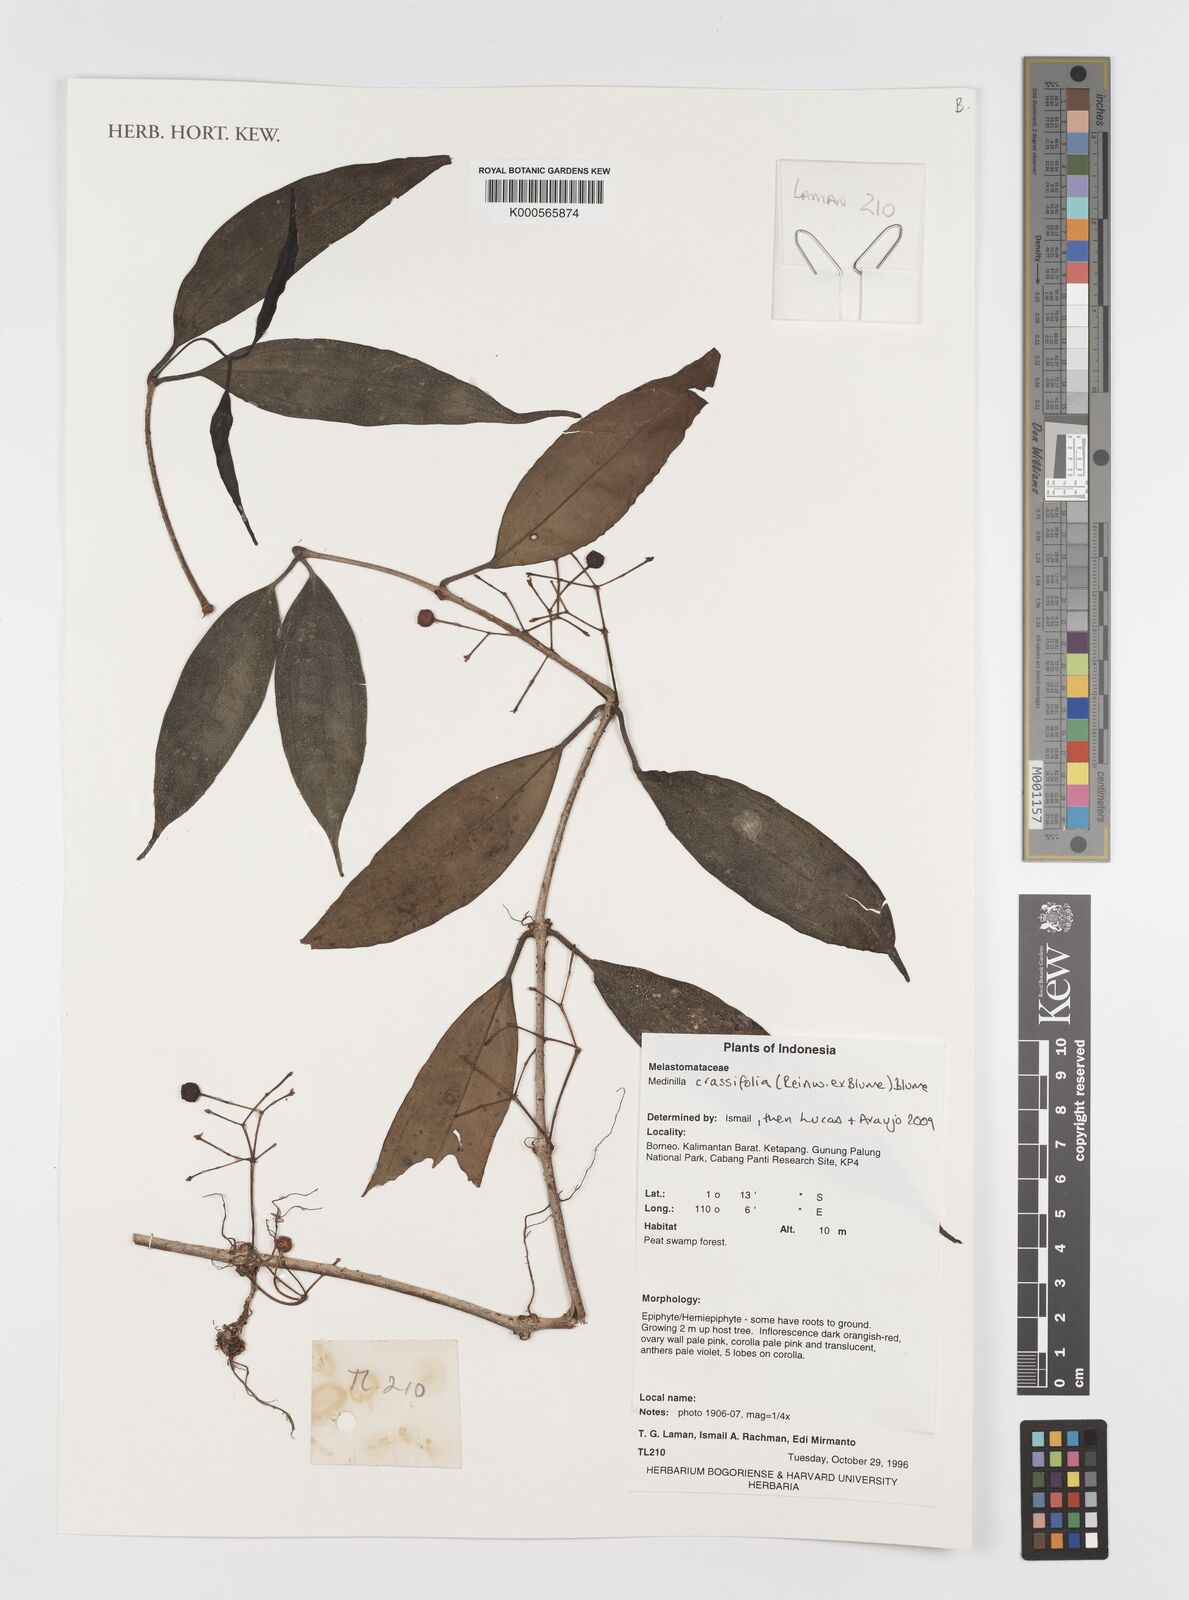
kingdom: Plantae
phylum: Tracheophyta
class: Magnoliopsida
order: Myrtales
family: Melastomataceae
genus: Medinilla
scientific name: Medinilla crassifolia
